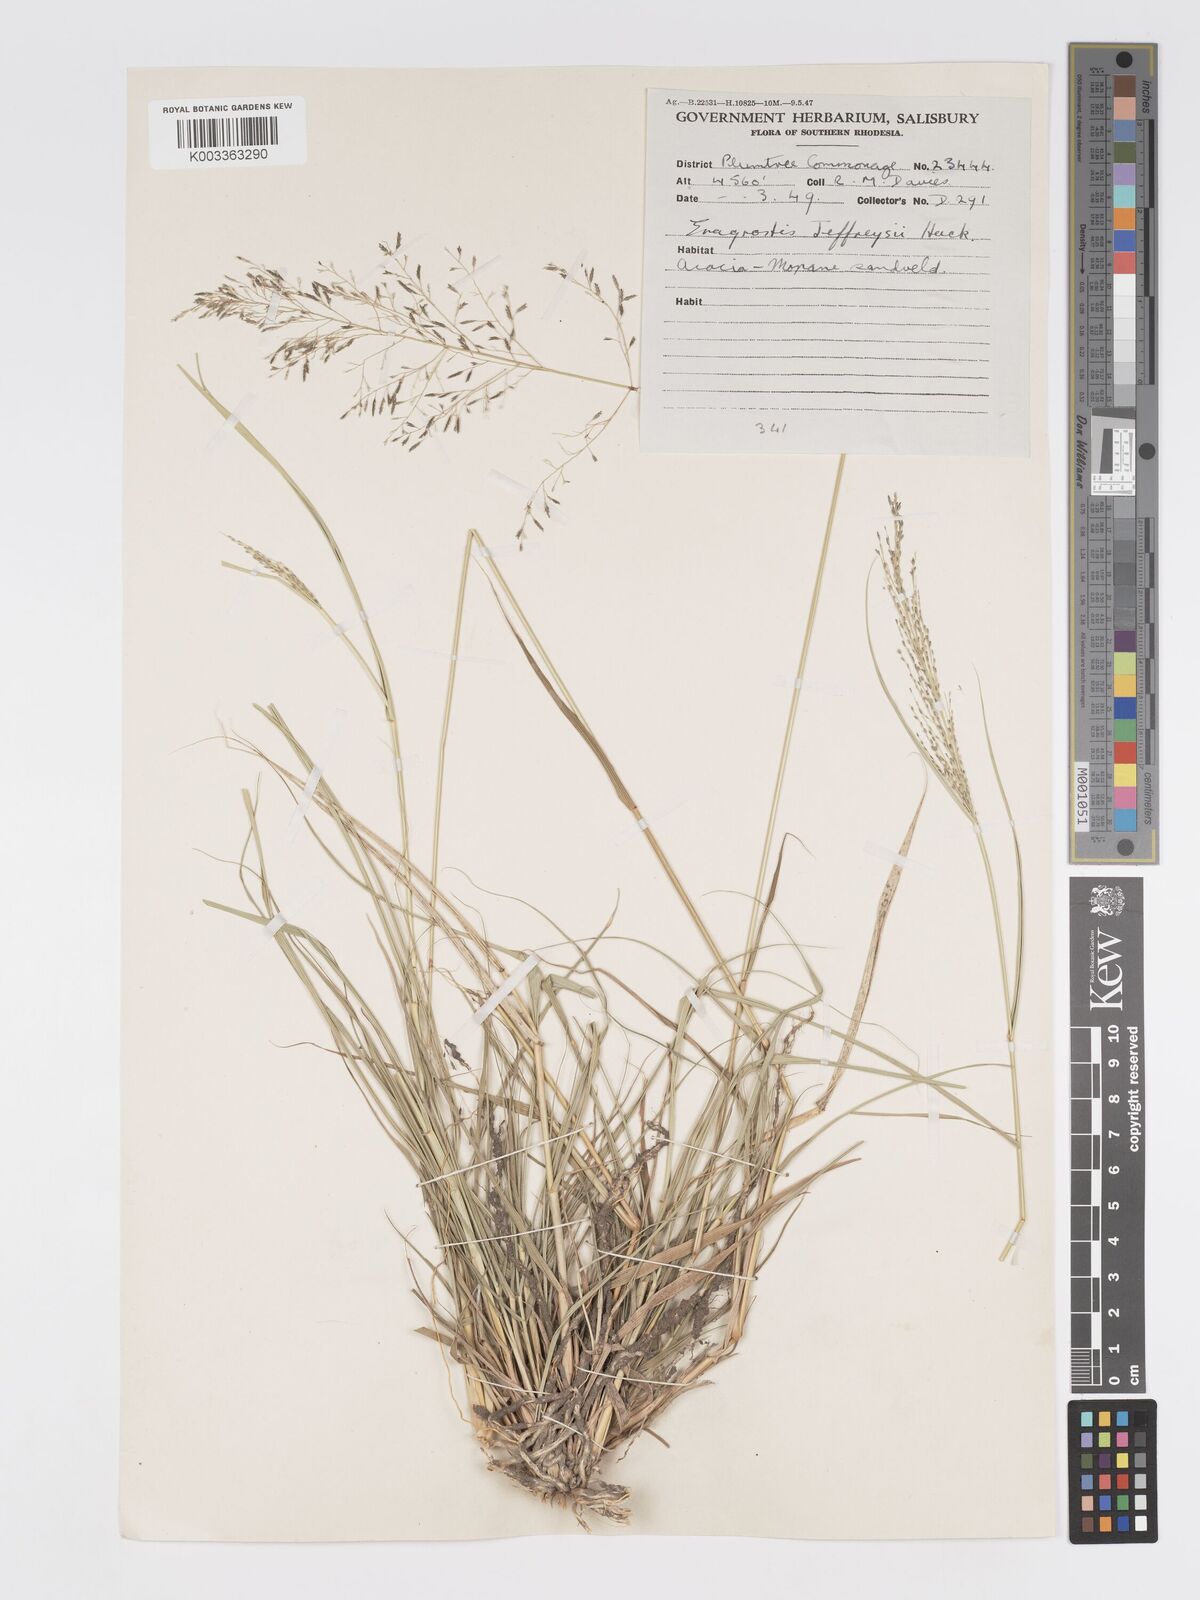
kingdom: Plantae
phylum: Tracheophyta
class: Liliopsida
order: Poales
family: Poaceae
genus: Eragrostis
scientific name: Eragrostis curvula
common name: African love-grass
